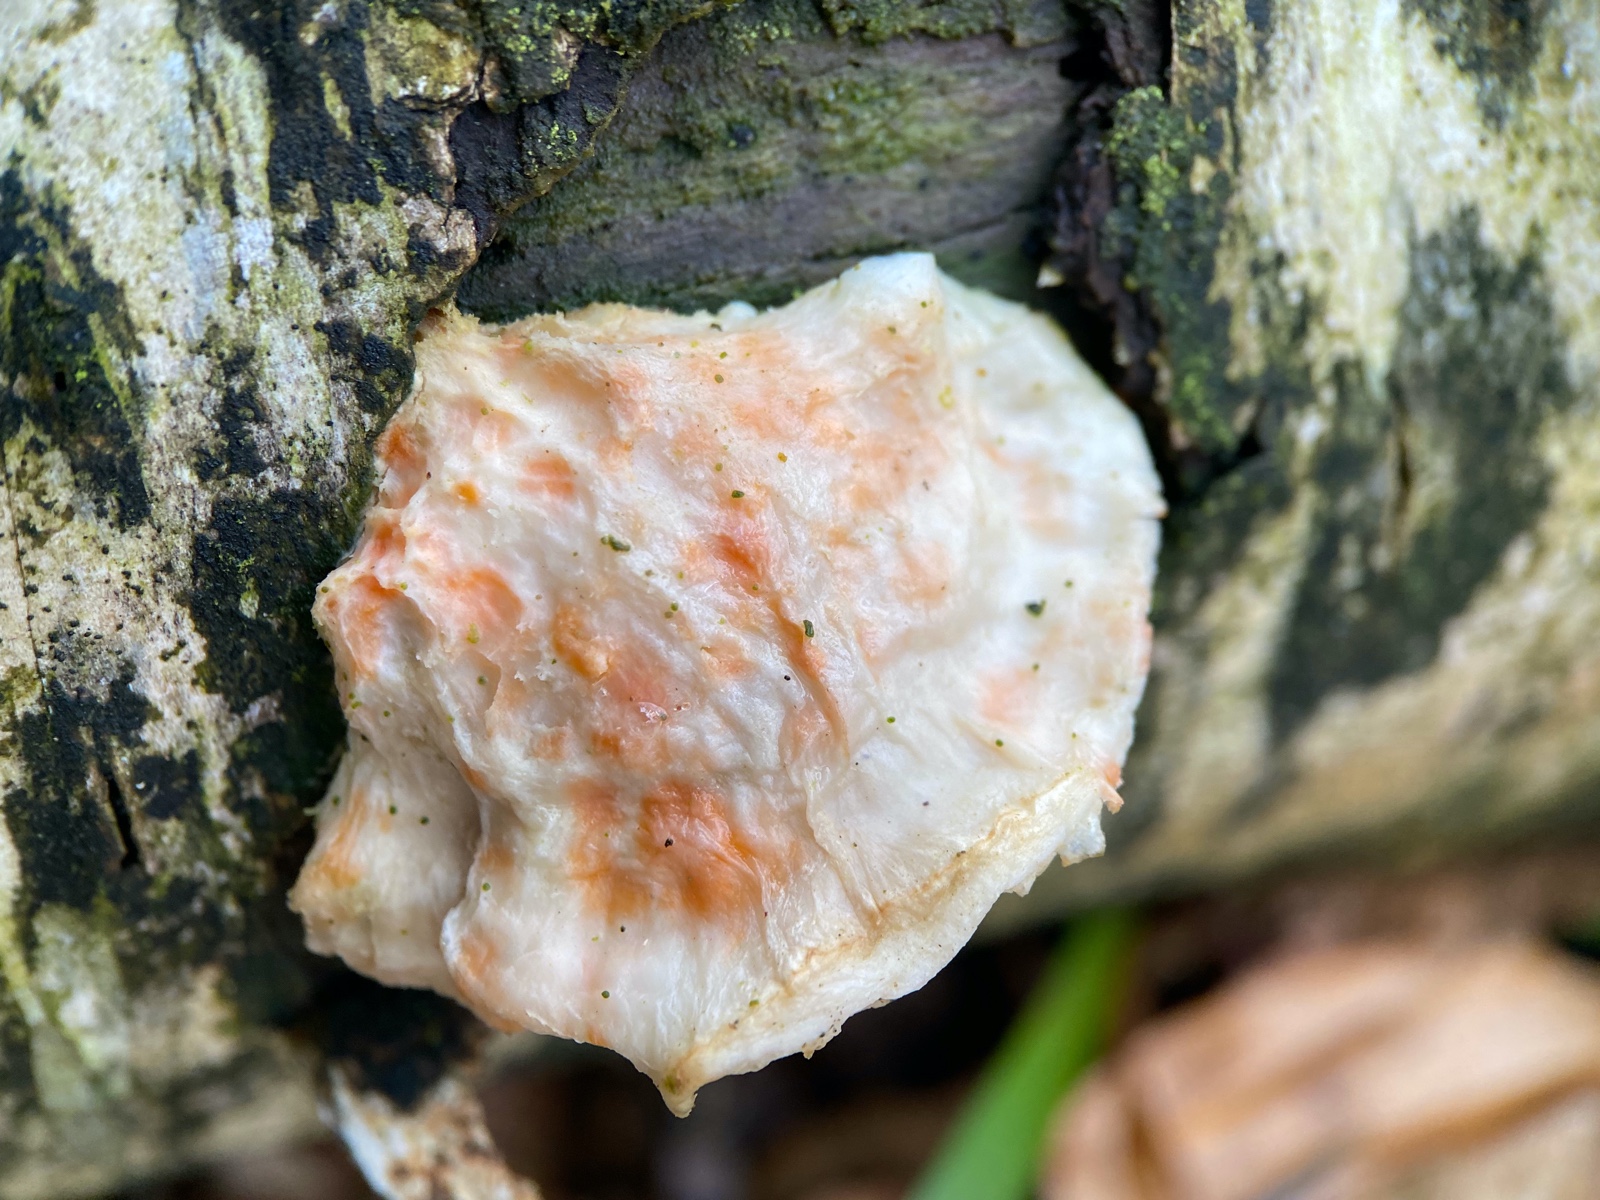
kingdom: Fungi
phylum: Basidiomycota
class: Agaricomycetes
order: Polyporales
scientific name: Polyporales
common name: poresvampordenen
